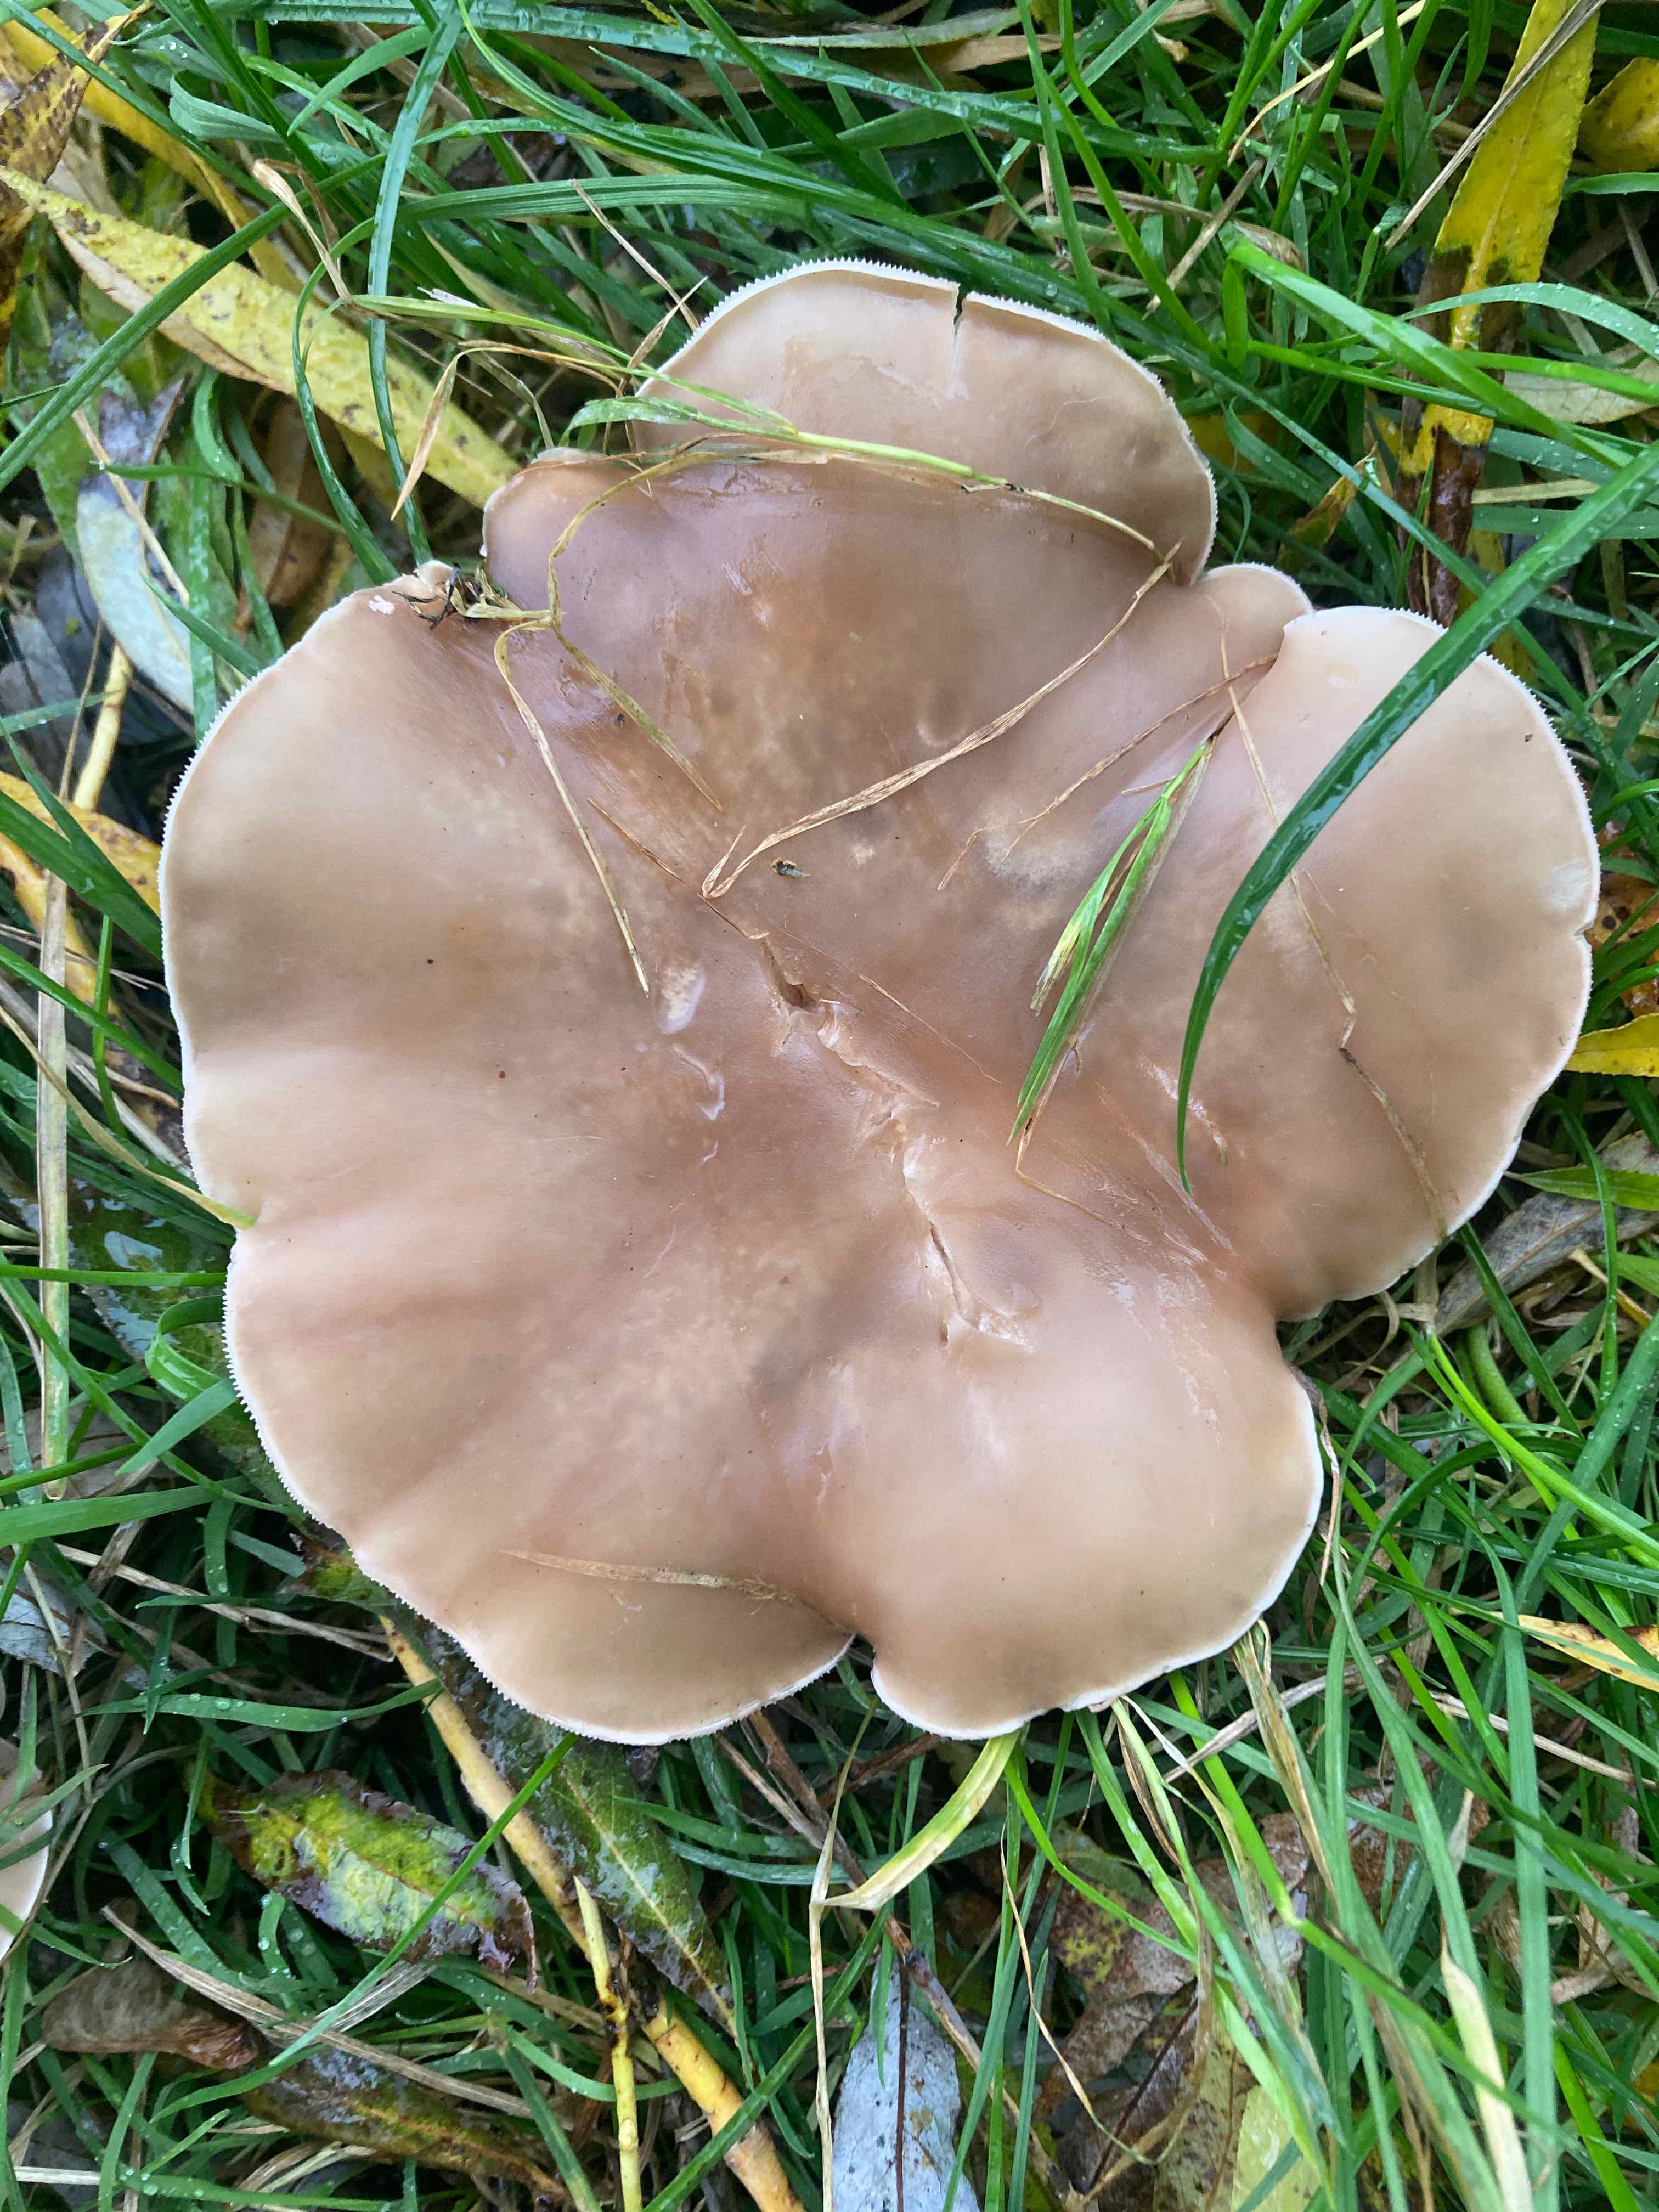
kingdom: Fungi
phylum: Basidiomycota
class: Agaricomycetes
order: Agaricales
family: Tricholomataceae
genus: Lepista
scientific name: Lepista personata
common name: bleg hekseringshat
